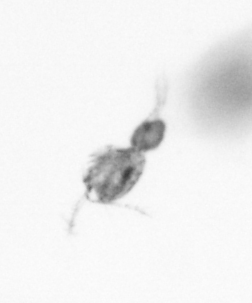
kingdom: Animalia
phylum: Arthropoda
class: Copepoda
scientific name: Copepoda
